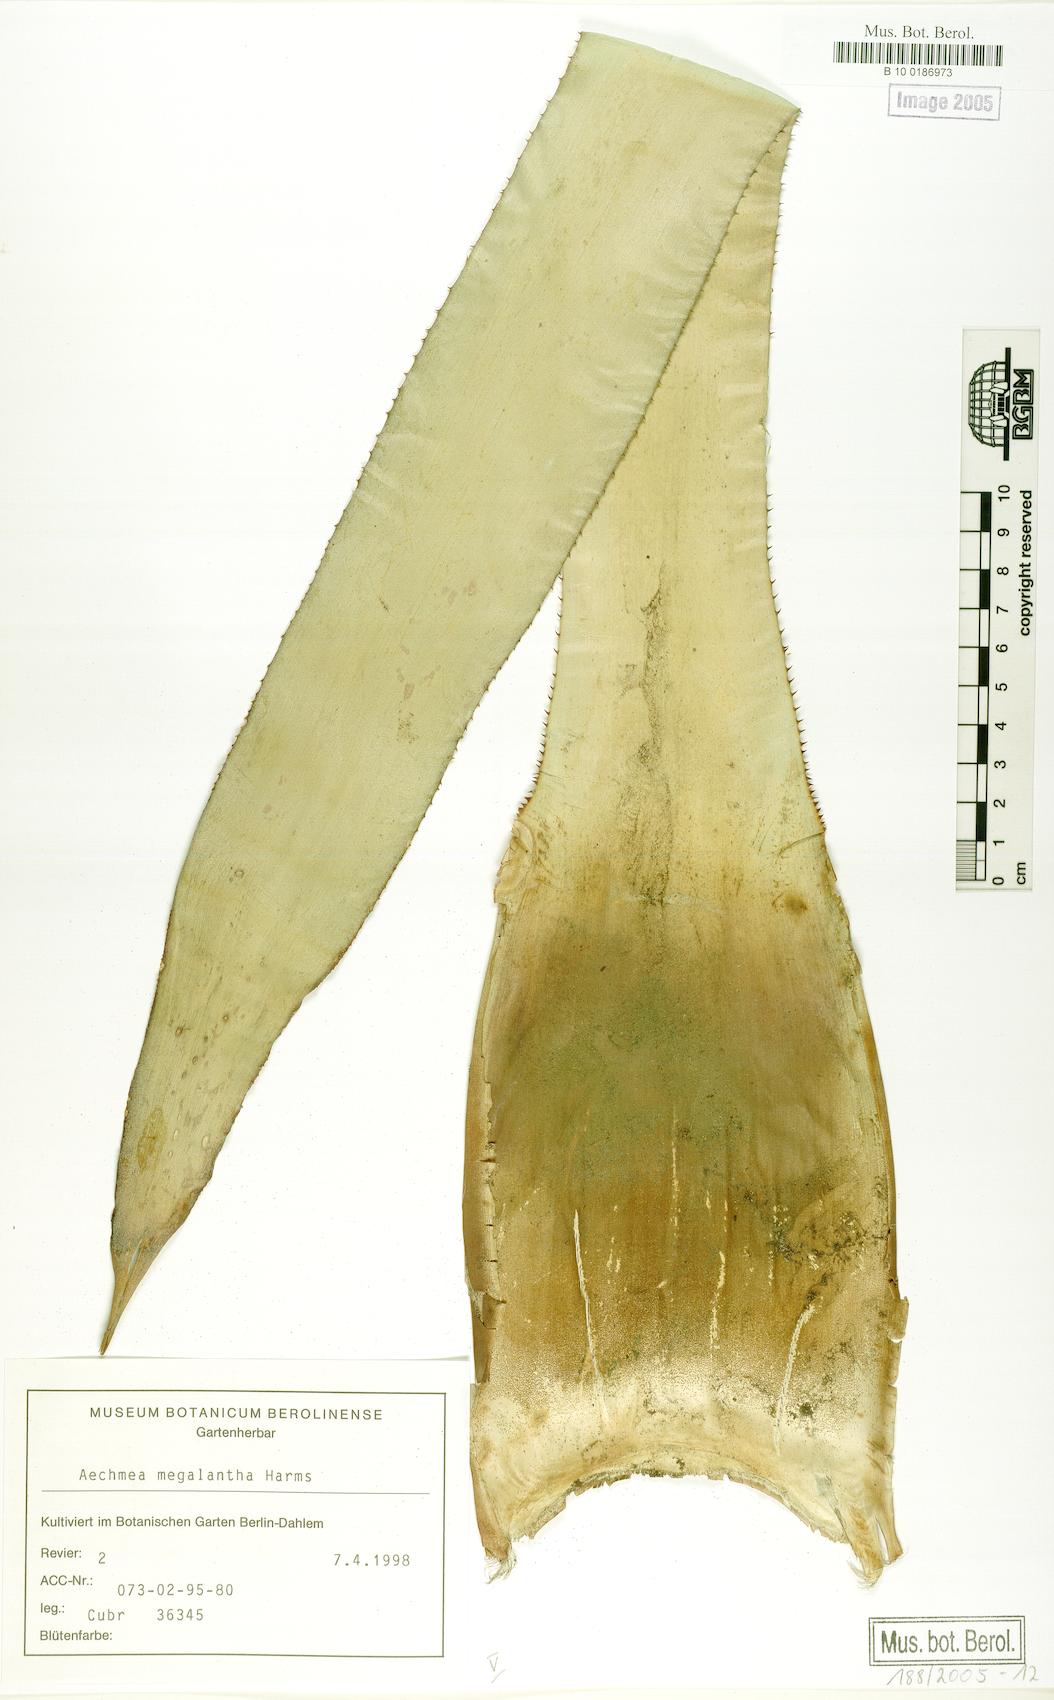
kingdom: Plantae
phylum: Tracheophyta
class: Liliopsida
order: Poales
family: Bromeliaceae
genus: Aechmea
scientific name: Aechmea costantinii
